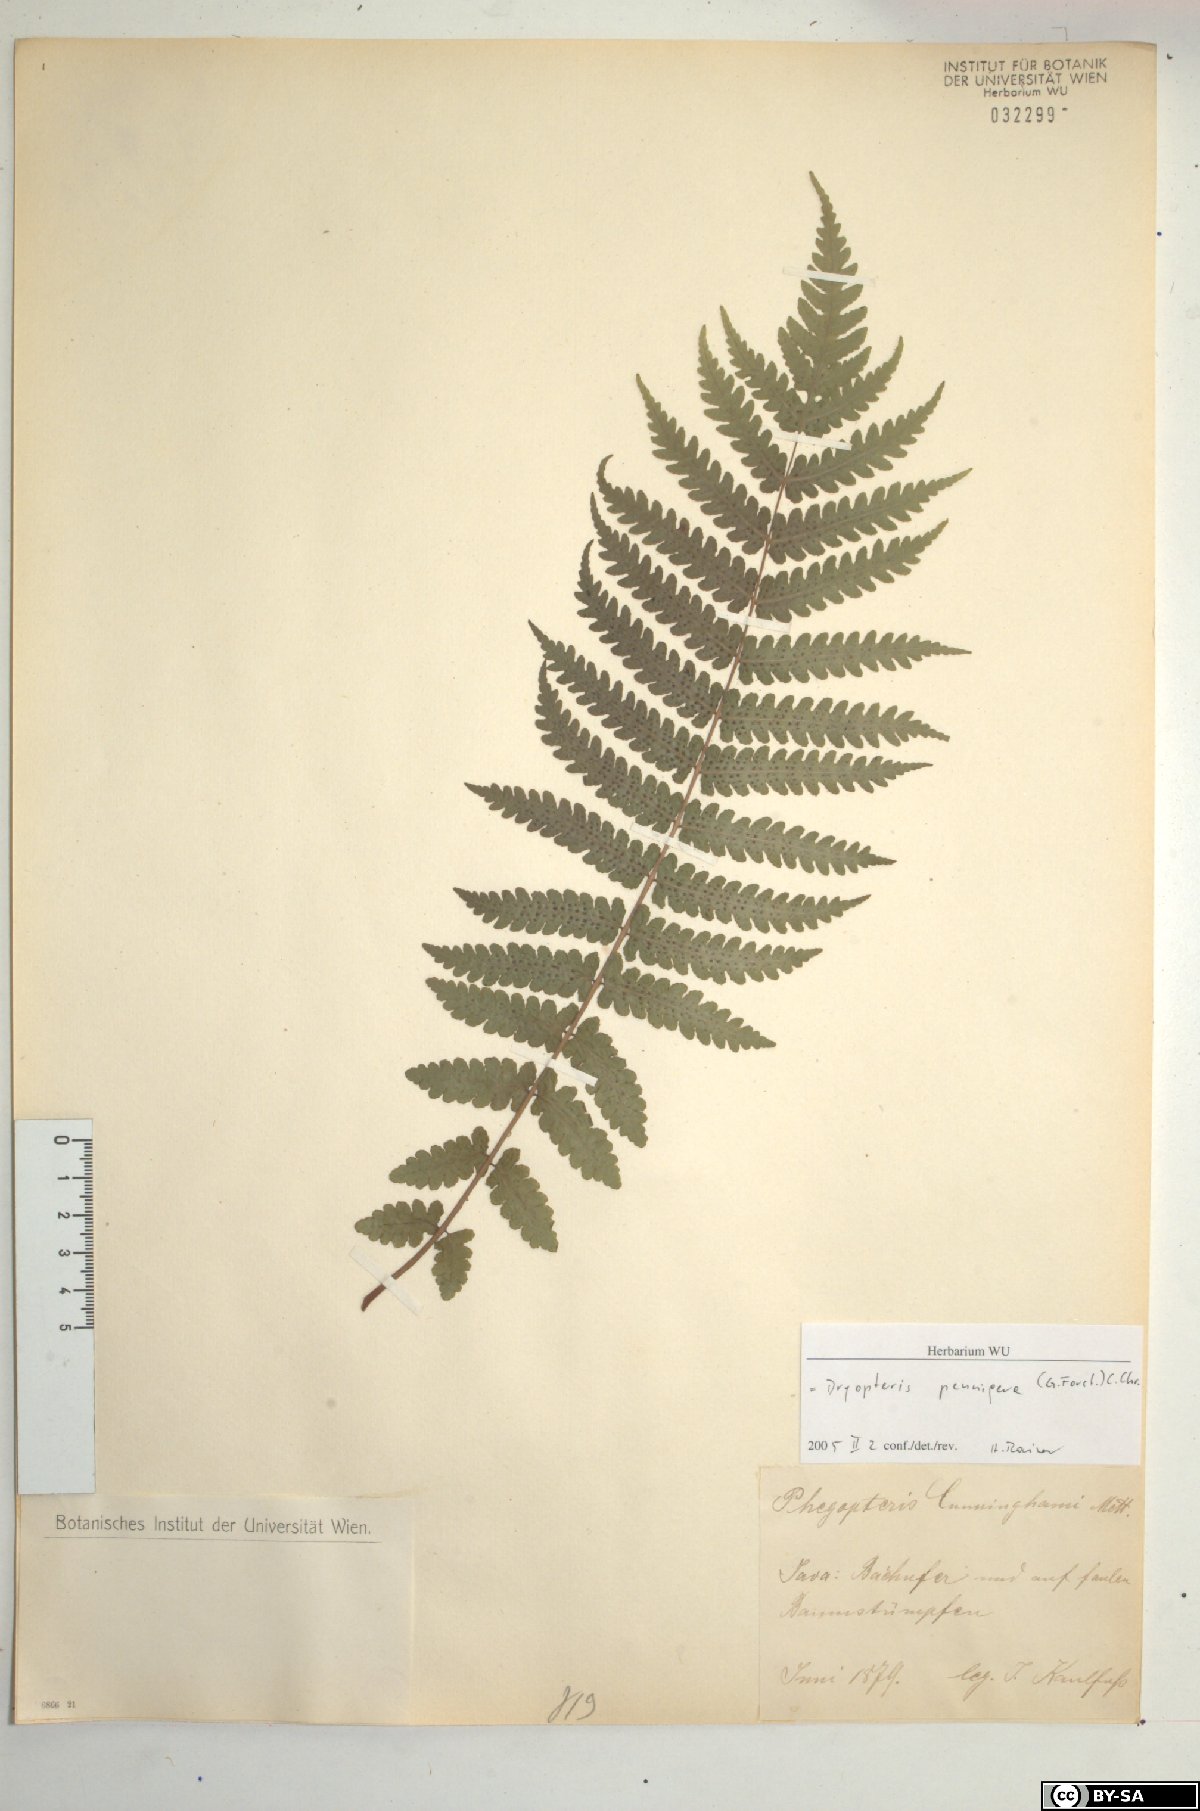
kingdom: Plantae
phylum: Tracheophyta
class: Polypodiopsida
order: Polypodiales
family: Thelypteridaceae
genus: Pakau
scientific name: Pakau pennigera
